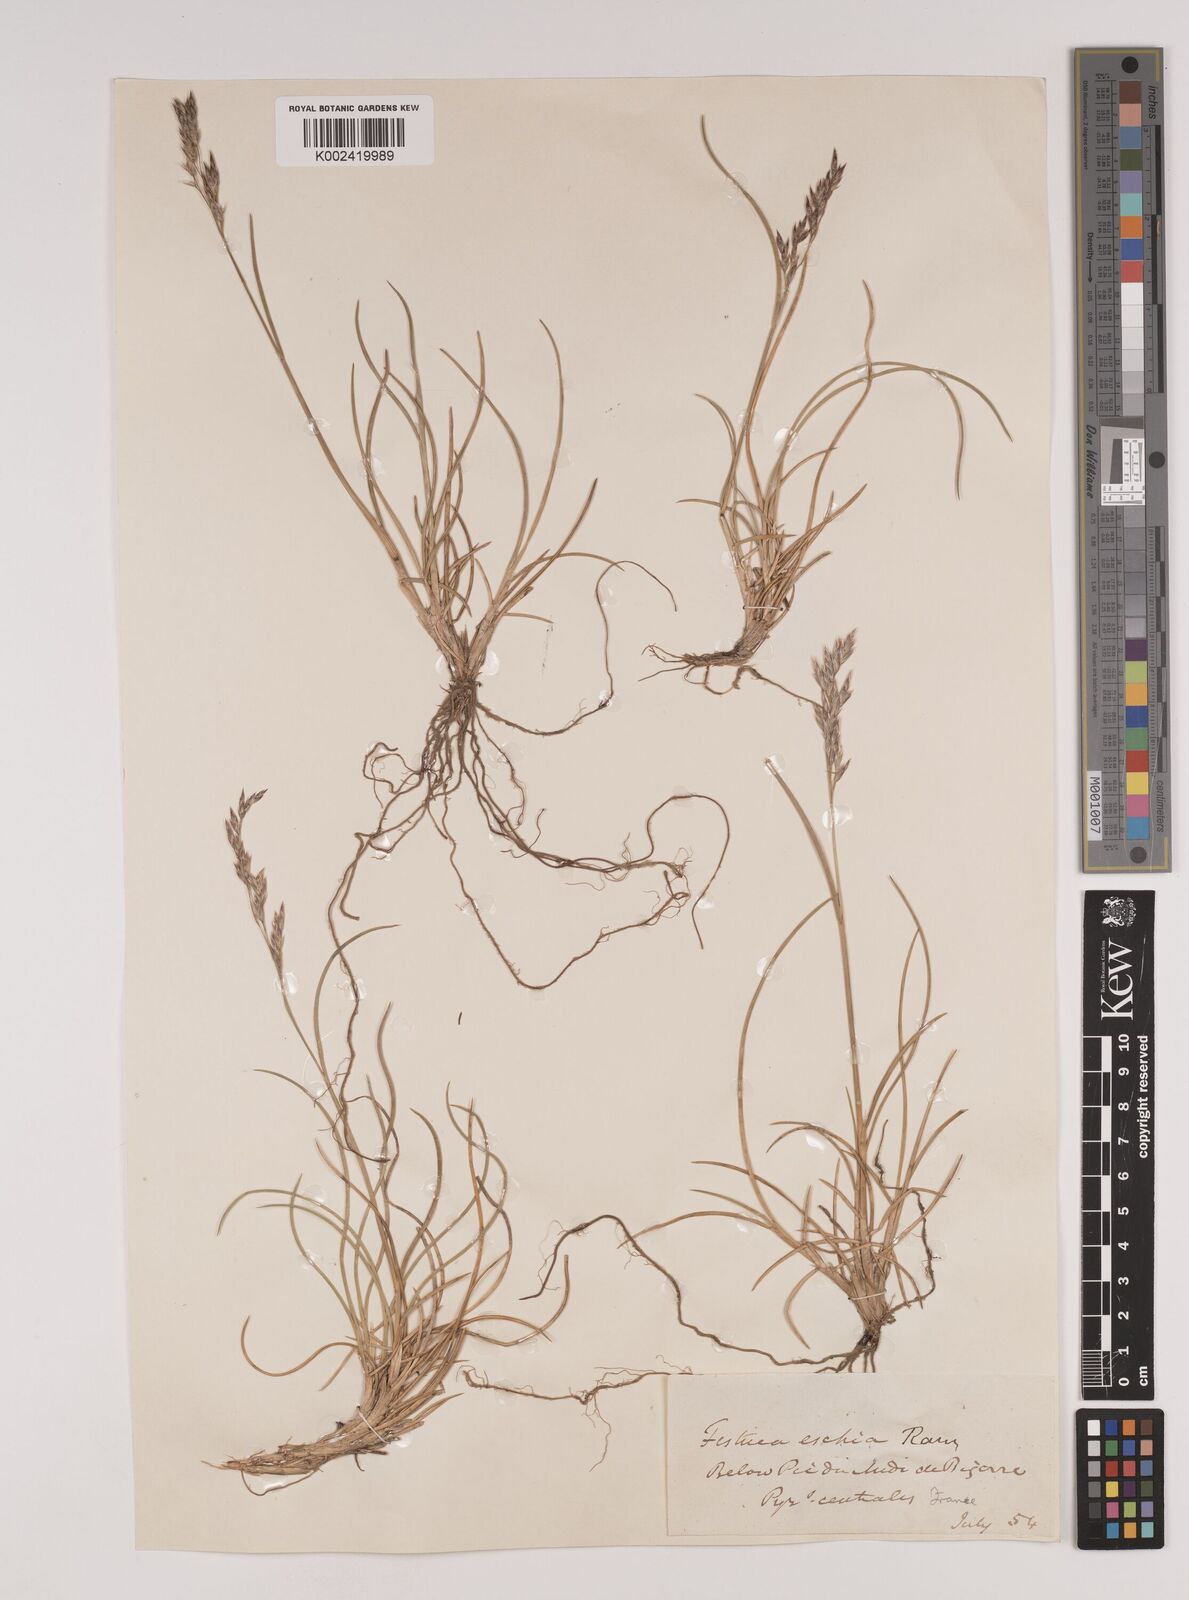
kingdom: Plantae
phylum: Tracheophyta
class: Liliopsida
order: Poales
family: Poaceae
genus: Festuca
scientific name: Festuca eskia
